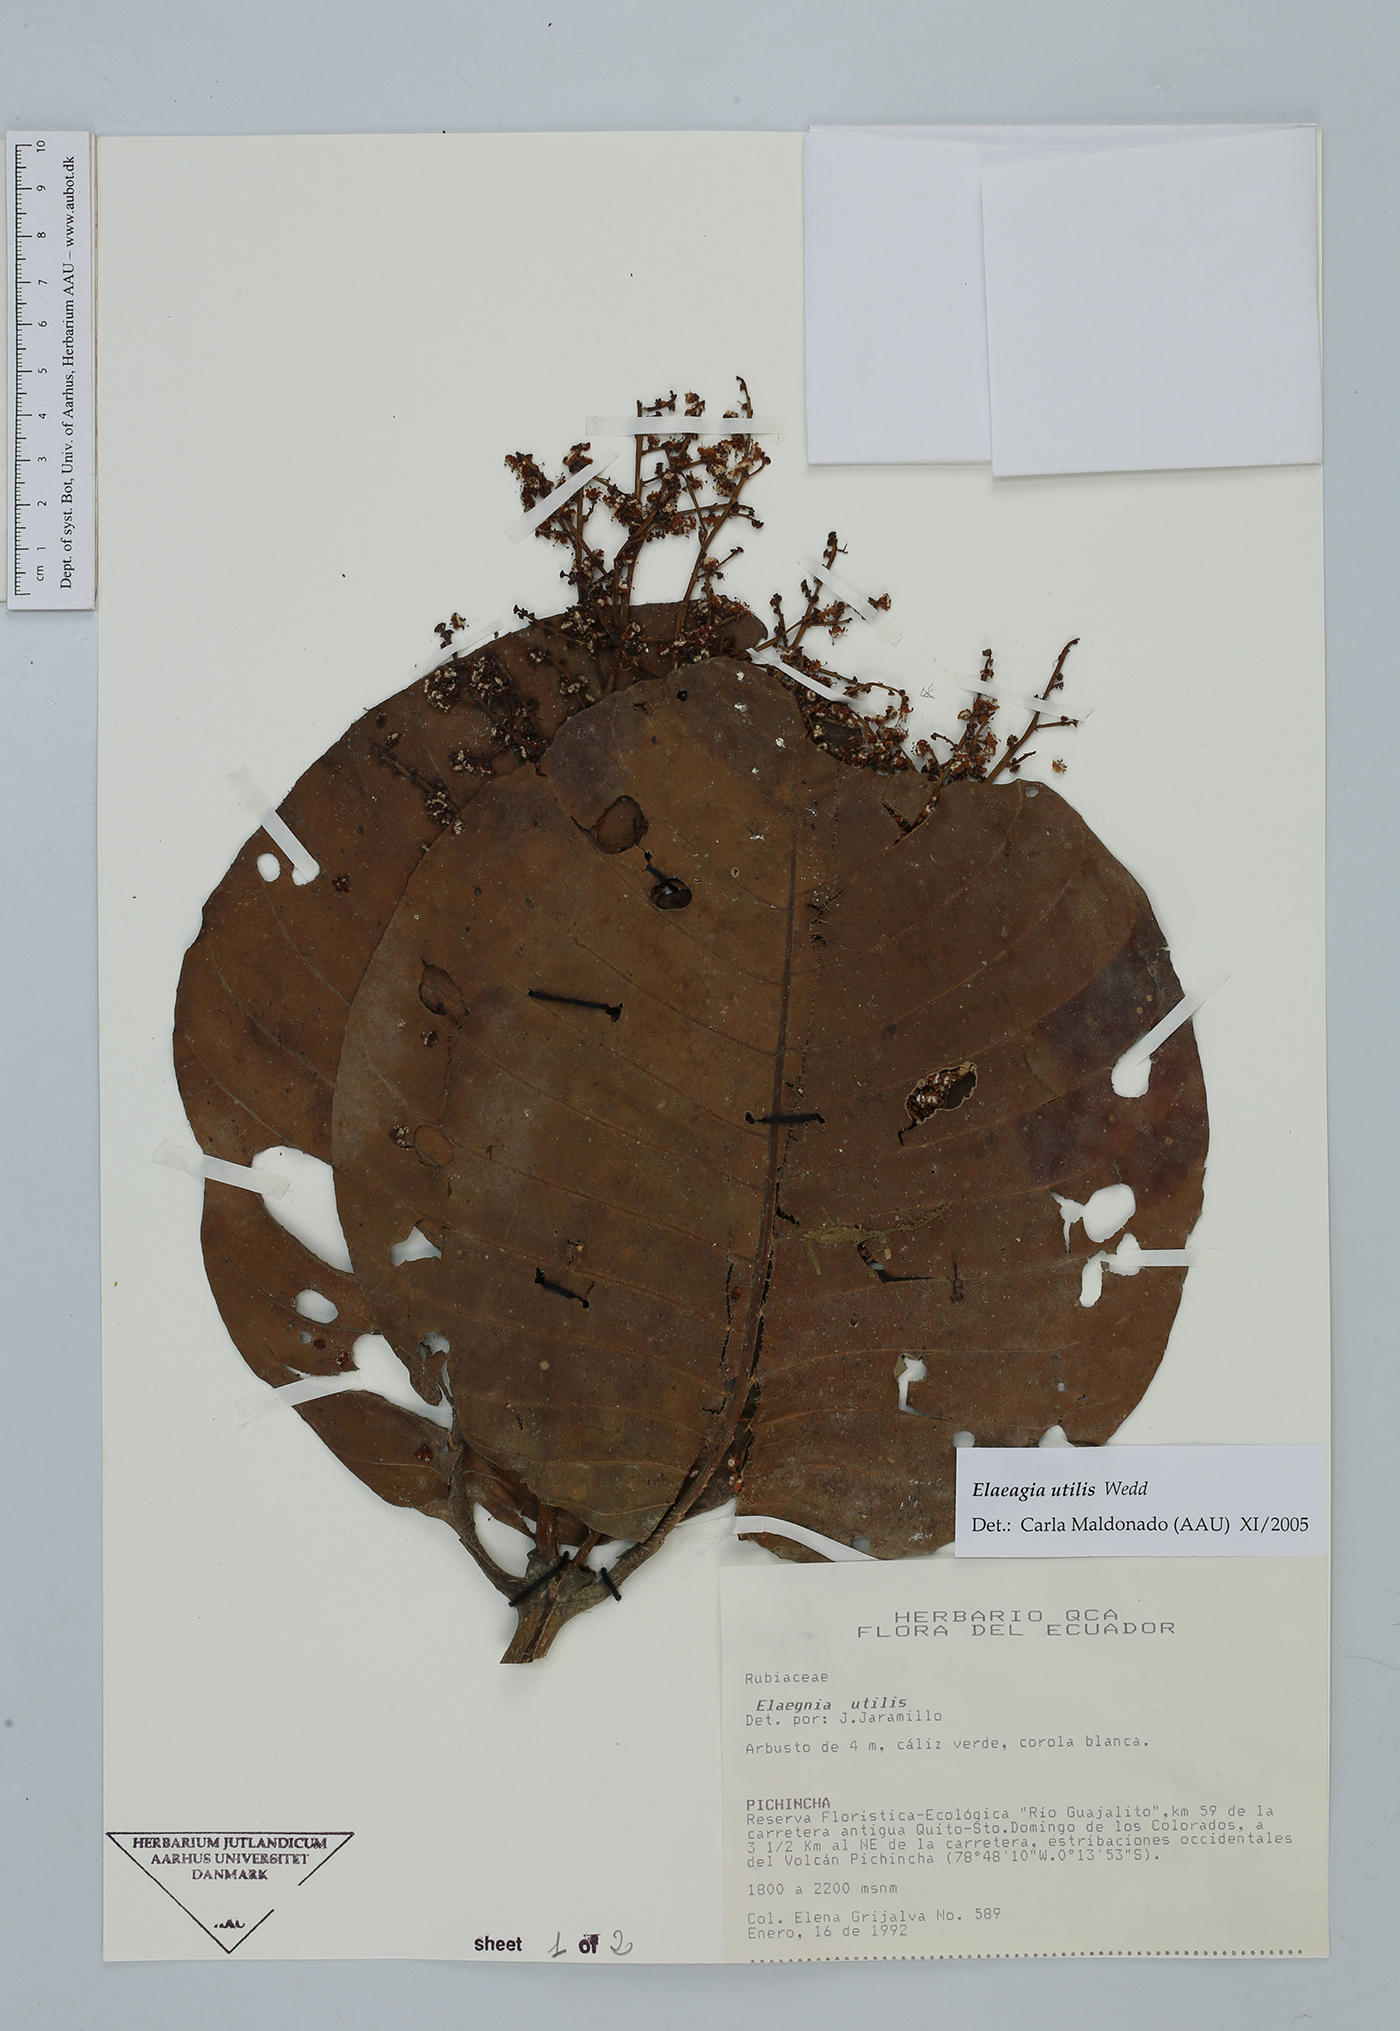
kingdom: Plantae
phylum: Tracheophyta
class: Magnoliopsida
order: Gentianales
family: Rubiaceae
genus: Elaeagia
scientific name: Elaeagia utilis
